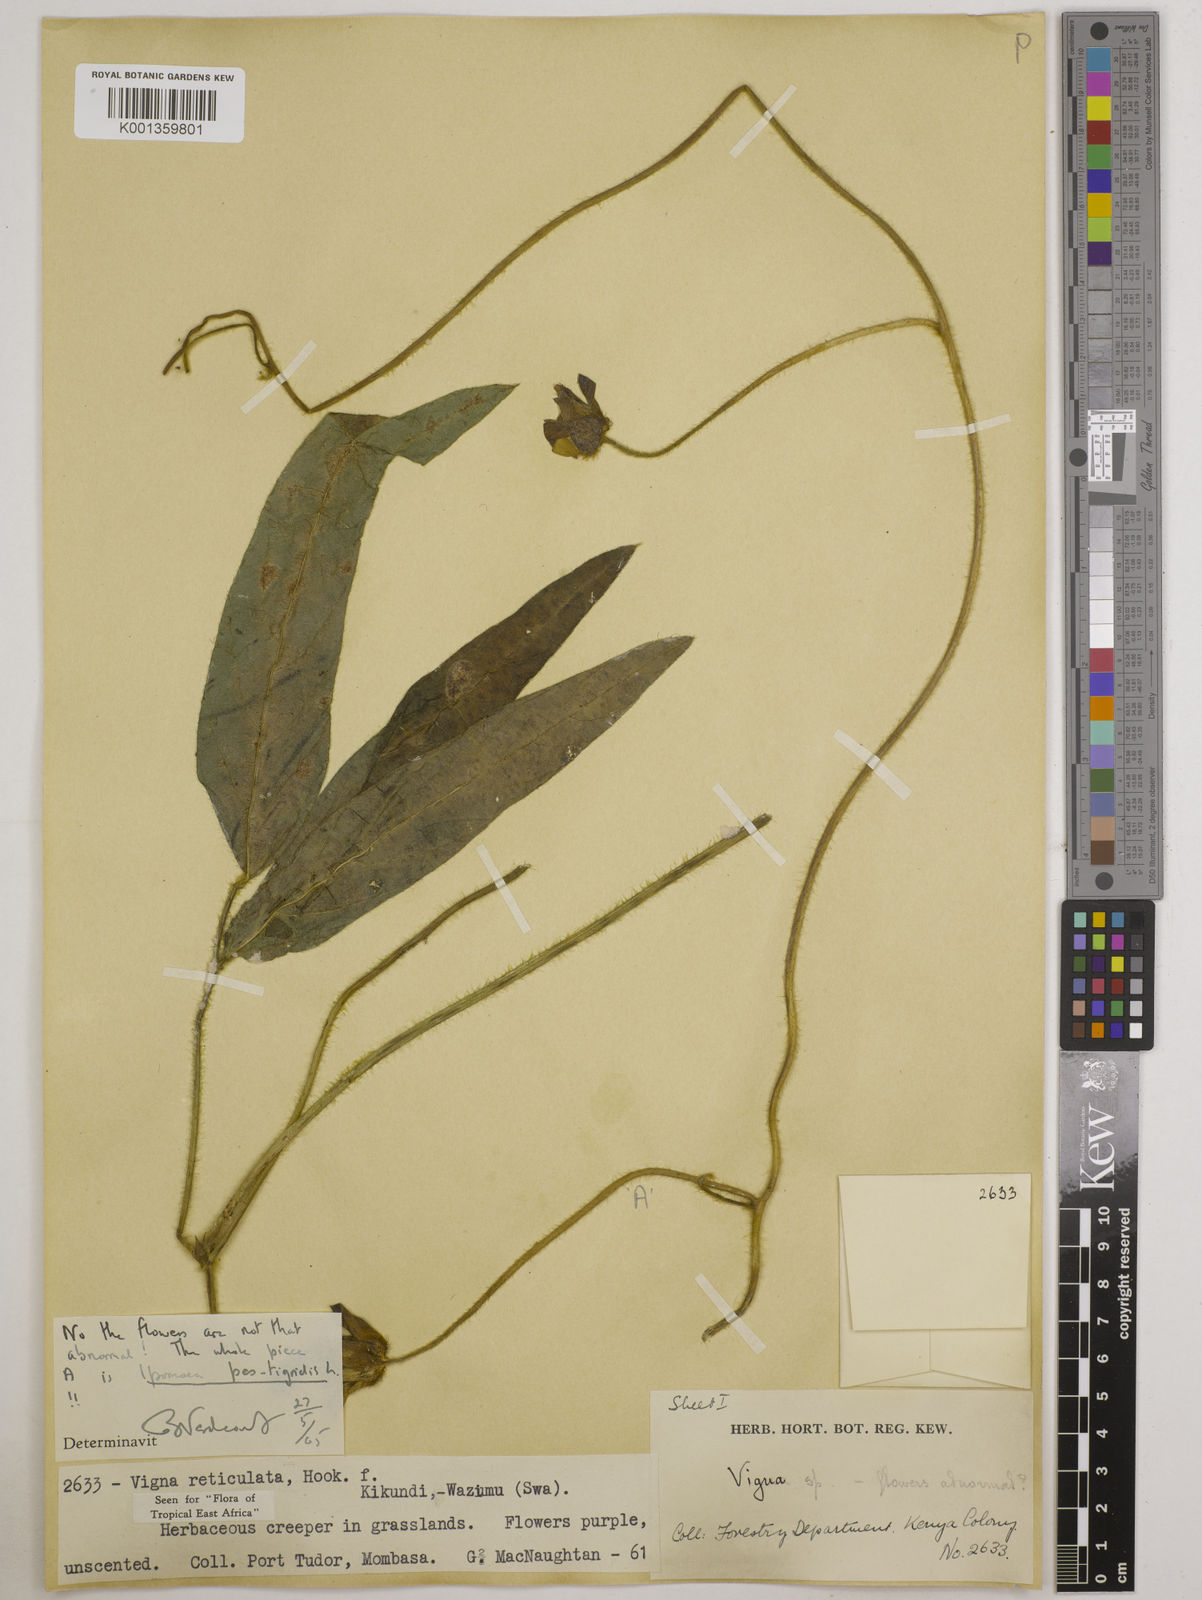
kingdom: Plantae
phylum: Tracheophyta
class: Magnoliopsida
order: Fabales
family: Fabaceae
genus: Vigna
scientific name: Vigna reticulata
